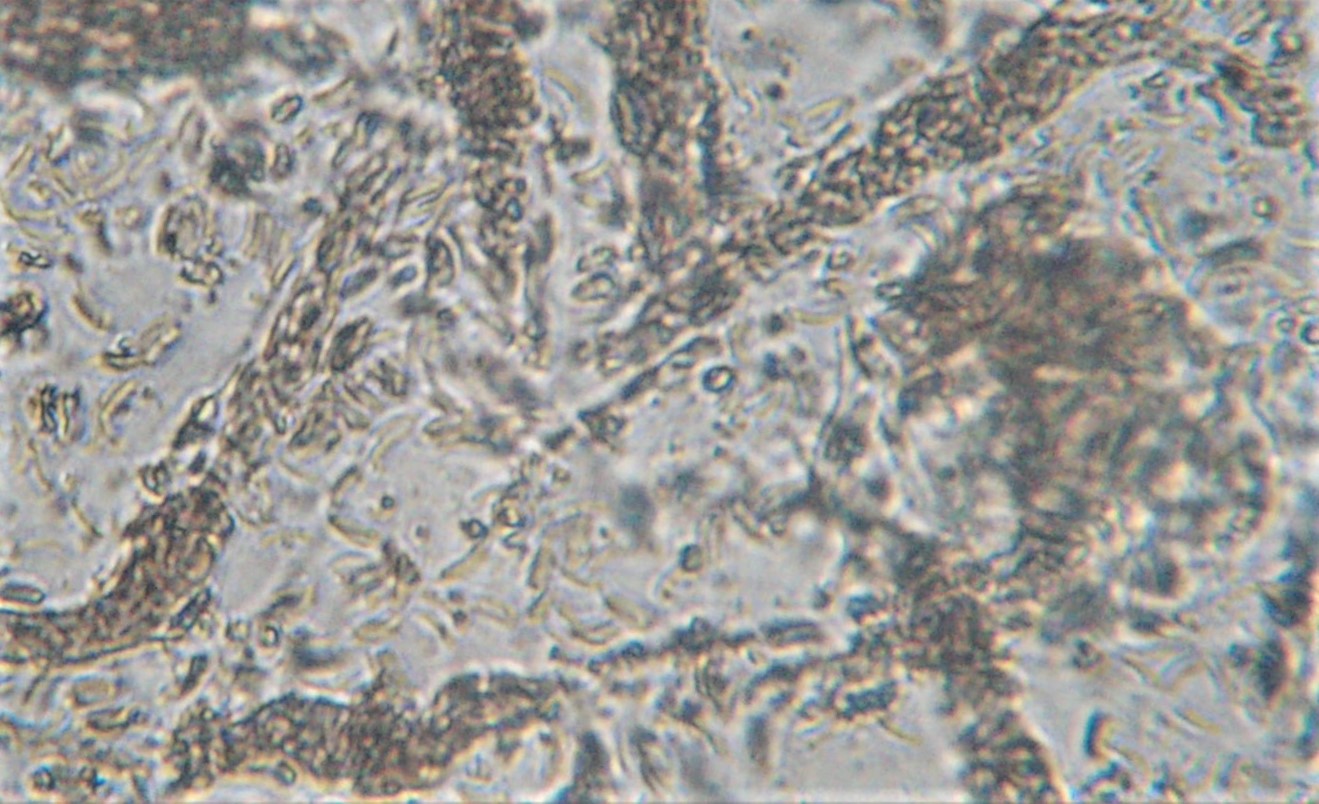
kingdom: Fungi
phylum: Ascomycota
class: Sordariomycetes
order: Xylariales
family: Diatrypaceae
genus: Diatrypella
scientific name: Diatrypella quercina
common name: ege-kulskorpe
